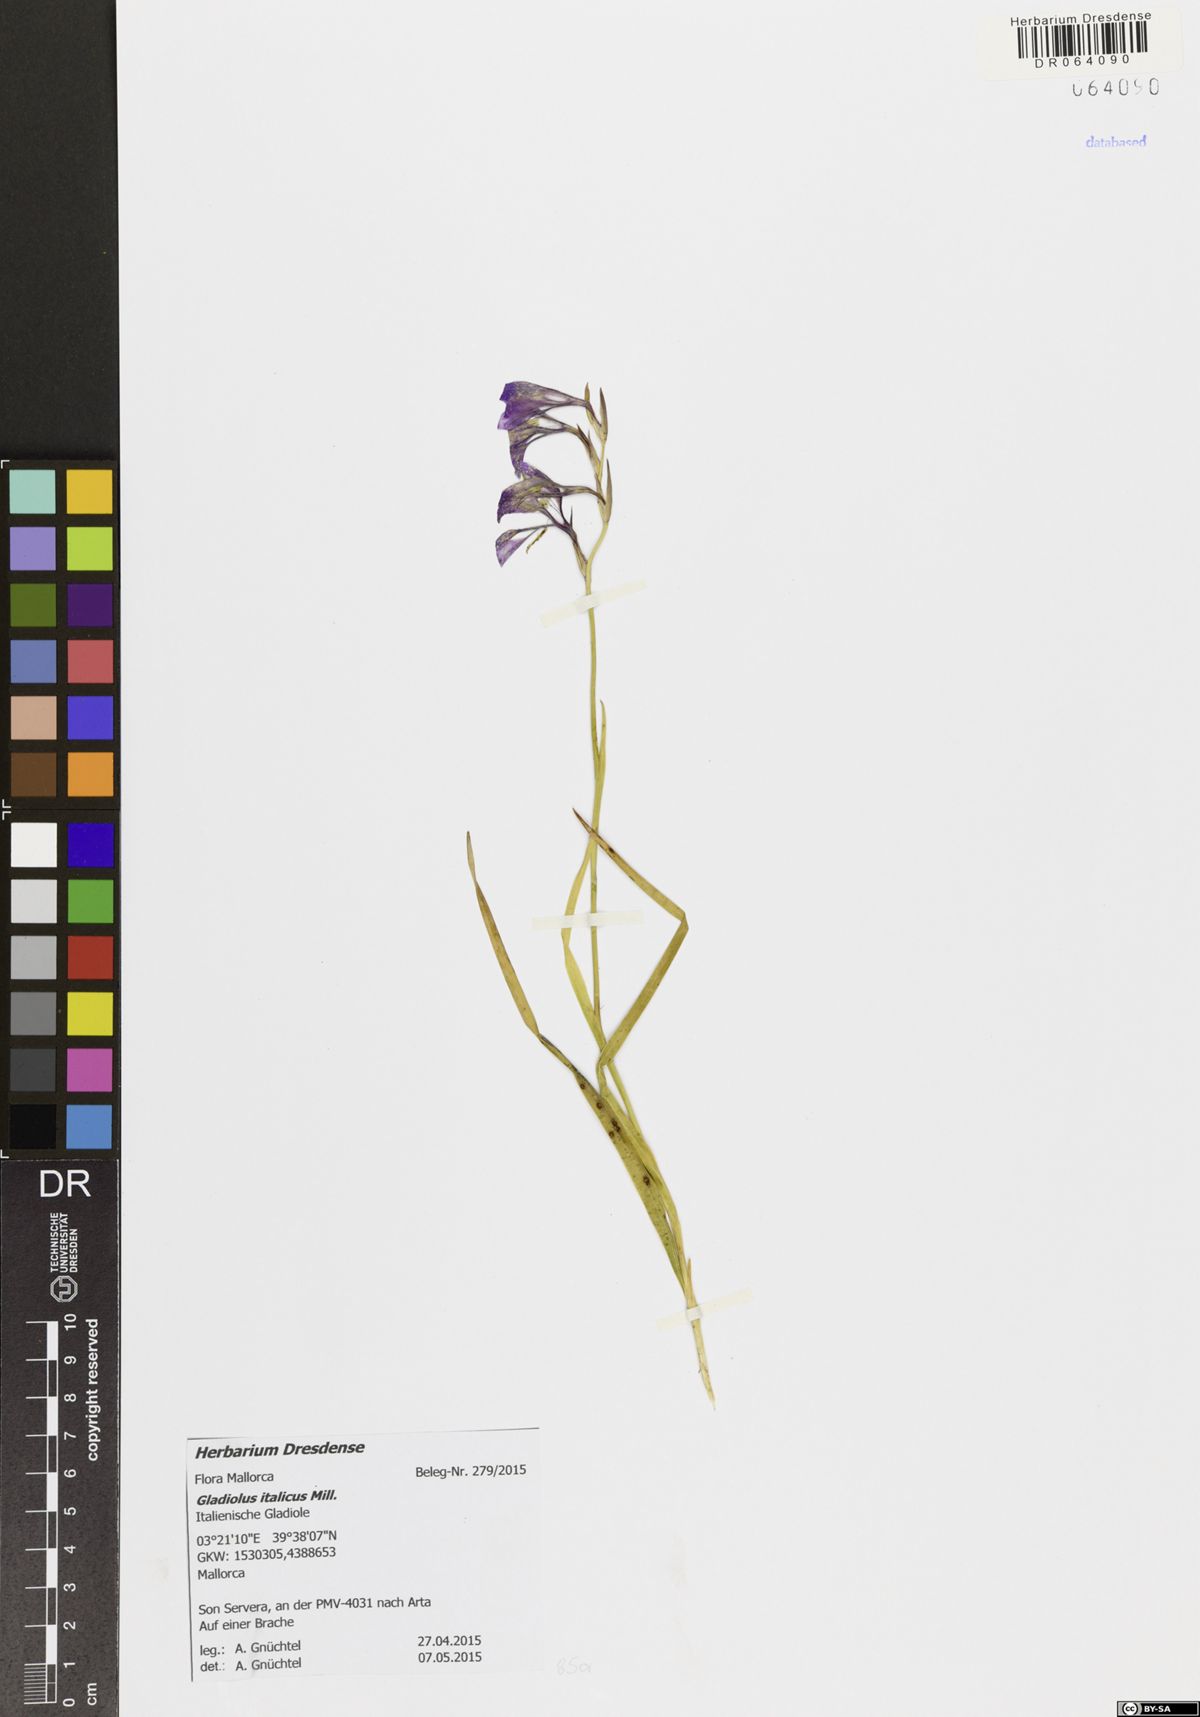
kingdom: Plantae
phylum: Tracheophyta
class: Liliopsida
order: Asparagales
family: Iridaceae
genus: Gladiolus
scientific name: Gladiolus italicus
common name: Field gladiolus
